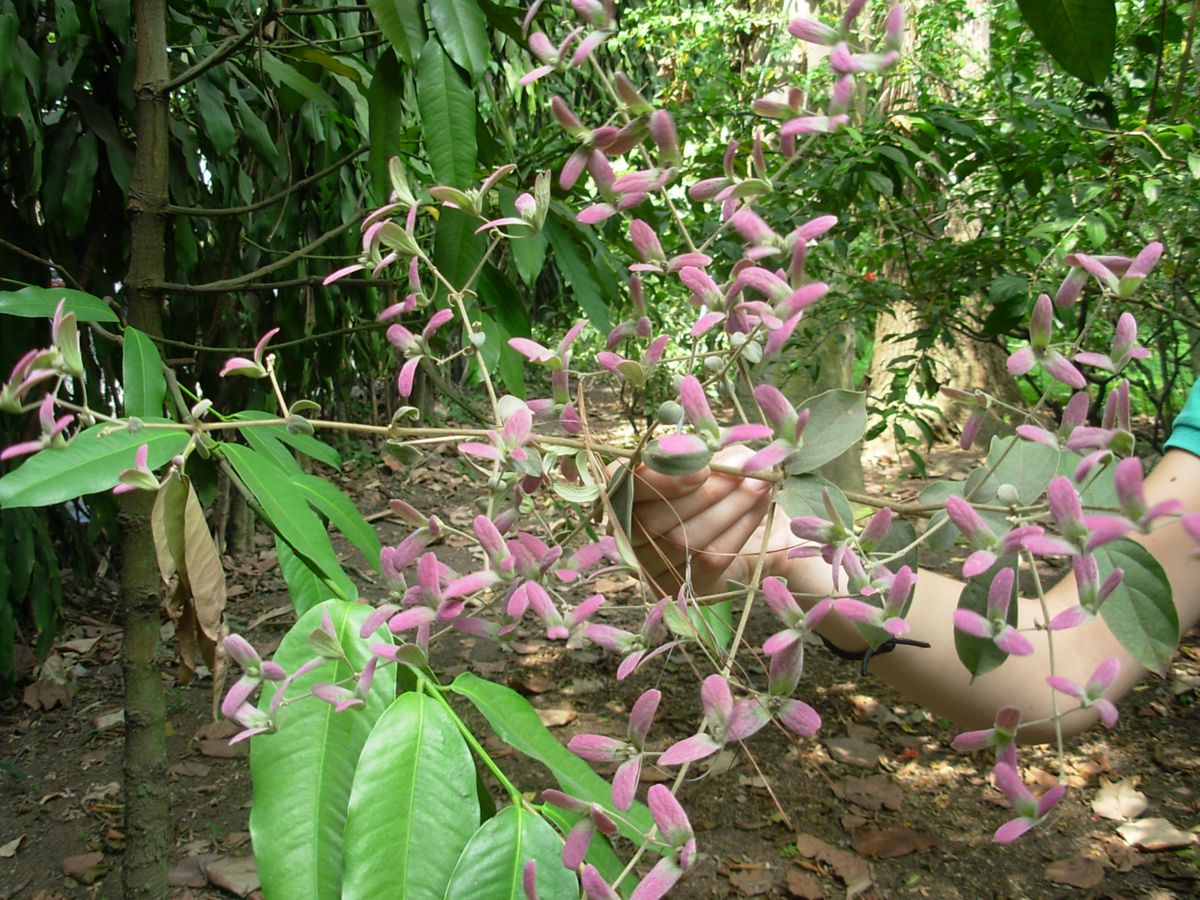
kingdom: Plantae
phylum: Tracheophyta
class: Magnoliopsida
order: Lamiales
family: Lamiaceae
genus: Congea
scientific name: Congea tomentosa
